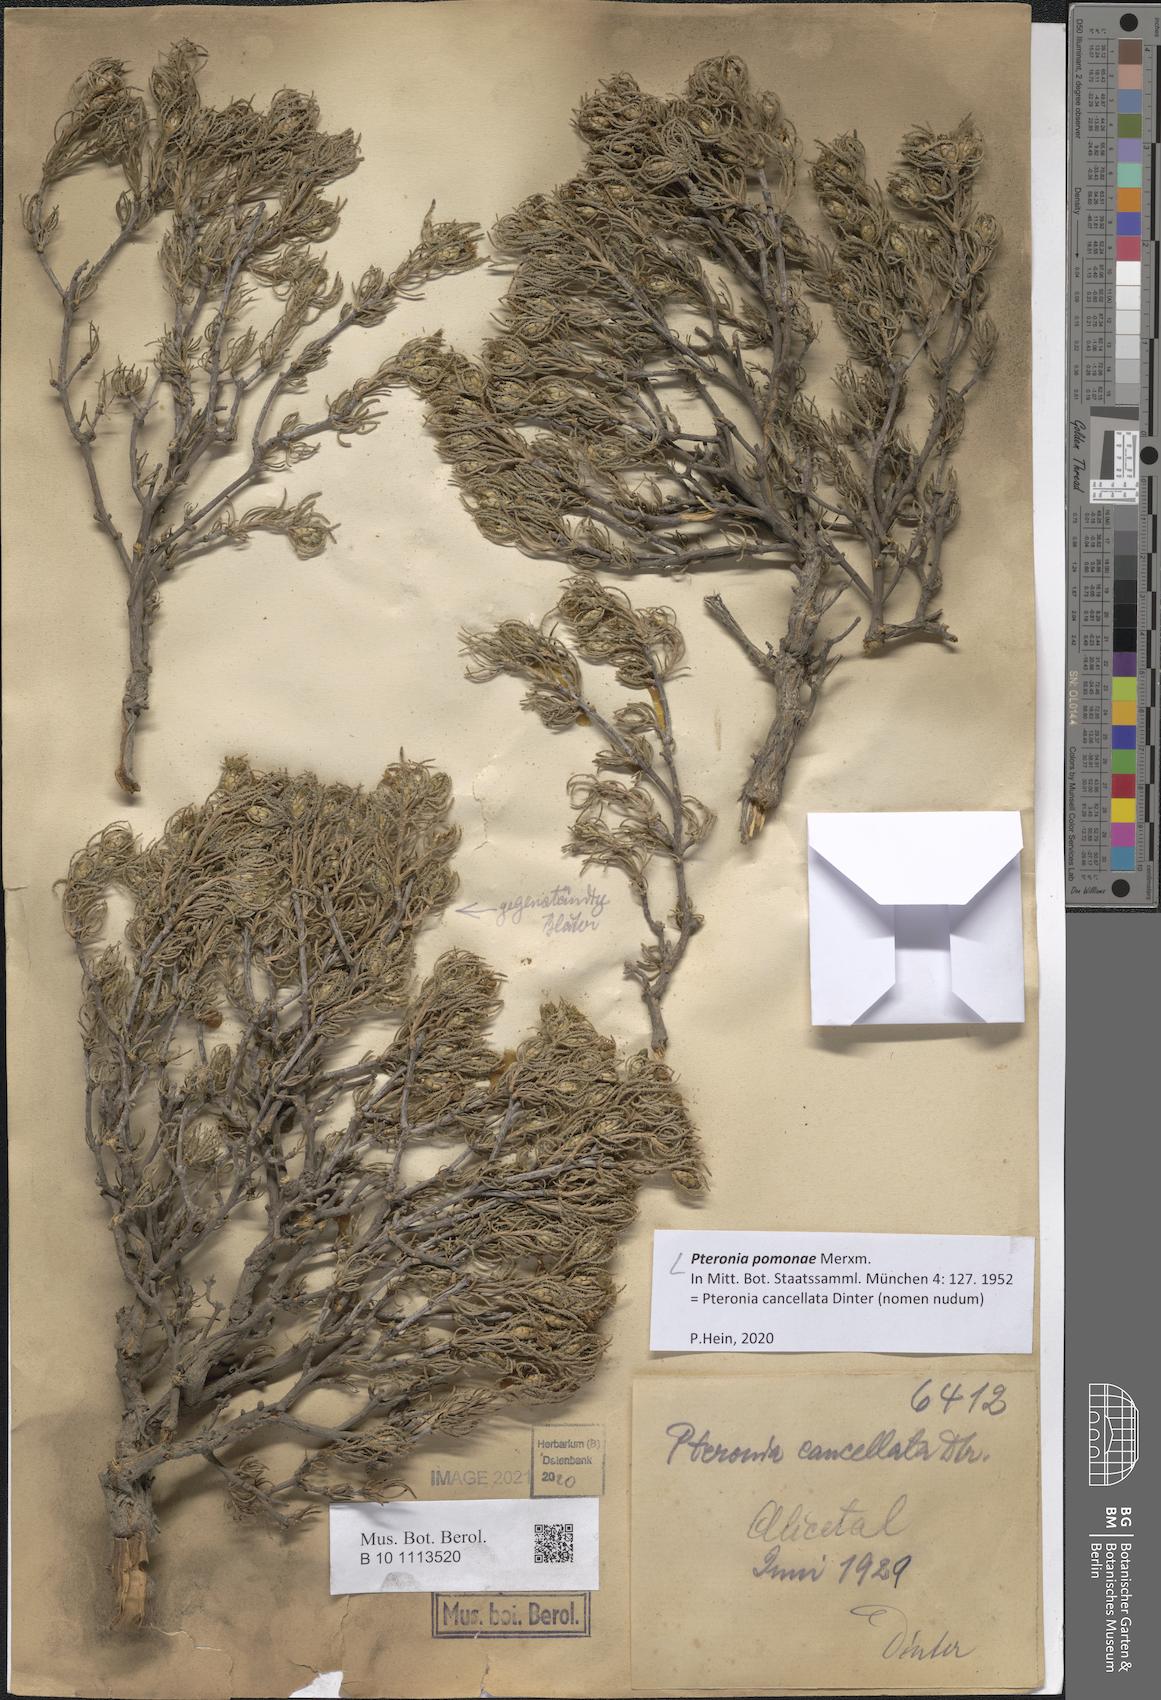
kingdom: Plantae
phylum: Tracheophyta
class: Magnoliopsida
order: Asterales
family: Asteraceae
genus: Pteronia
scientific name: Pteronia pomonae
